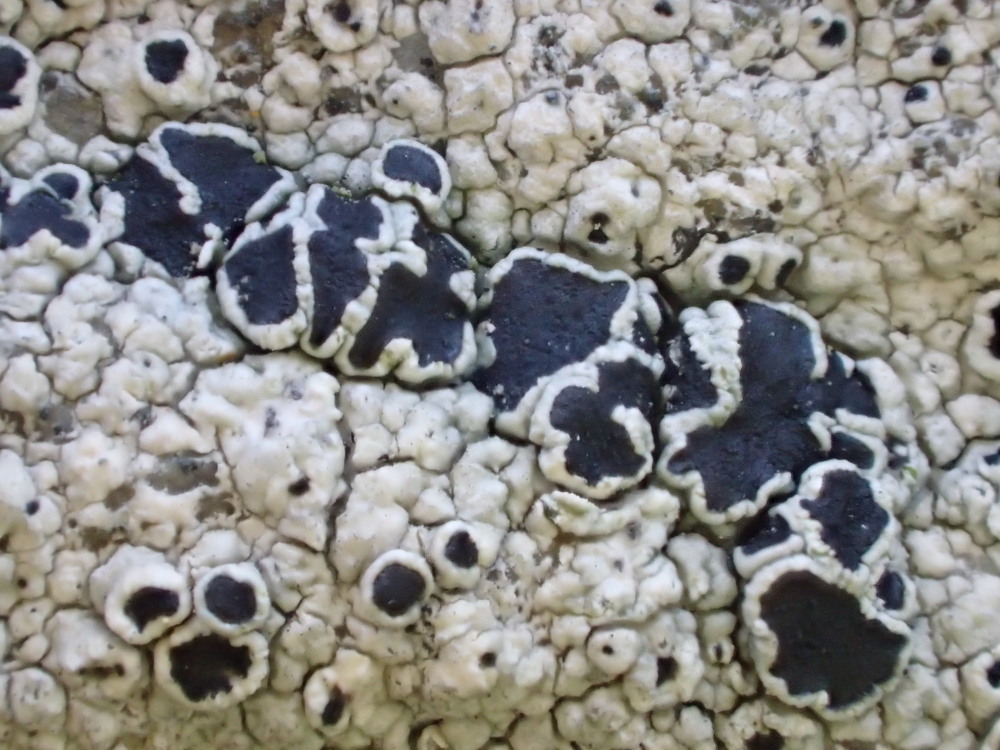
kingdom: Fungi
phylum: Ascomycota
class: Lecanoromycetes
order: Lecanorales
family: Tephromelataceae
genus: Tephromela
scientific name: Tephromela atra
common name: sortfrugtet kantskivelav
